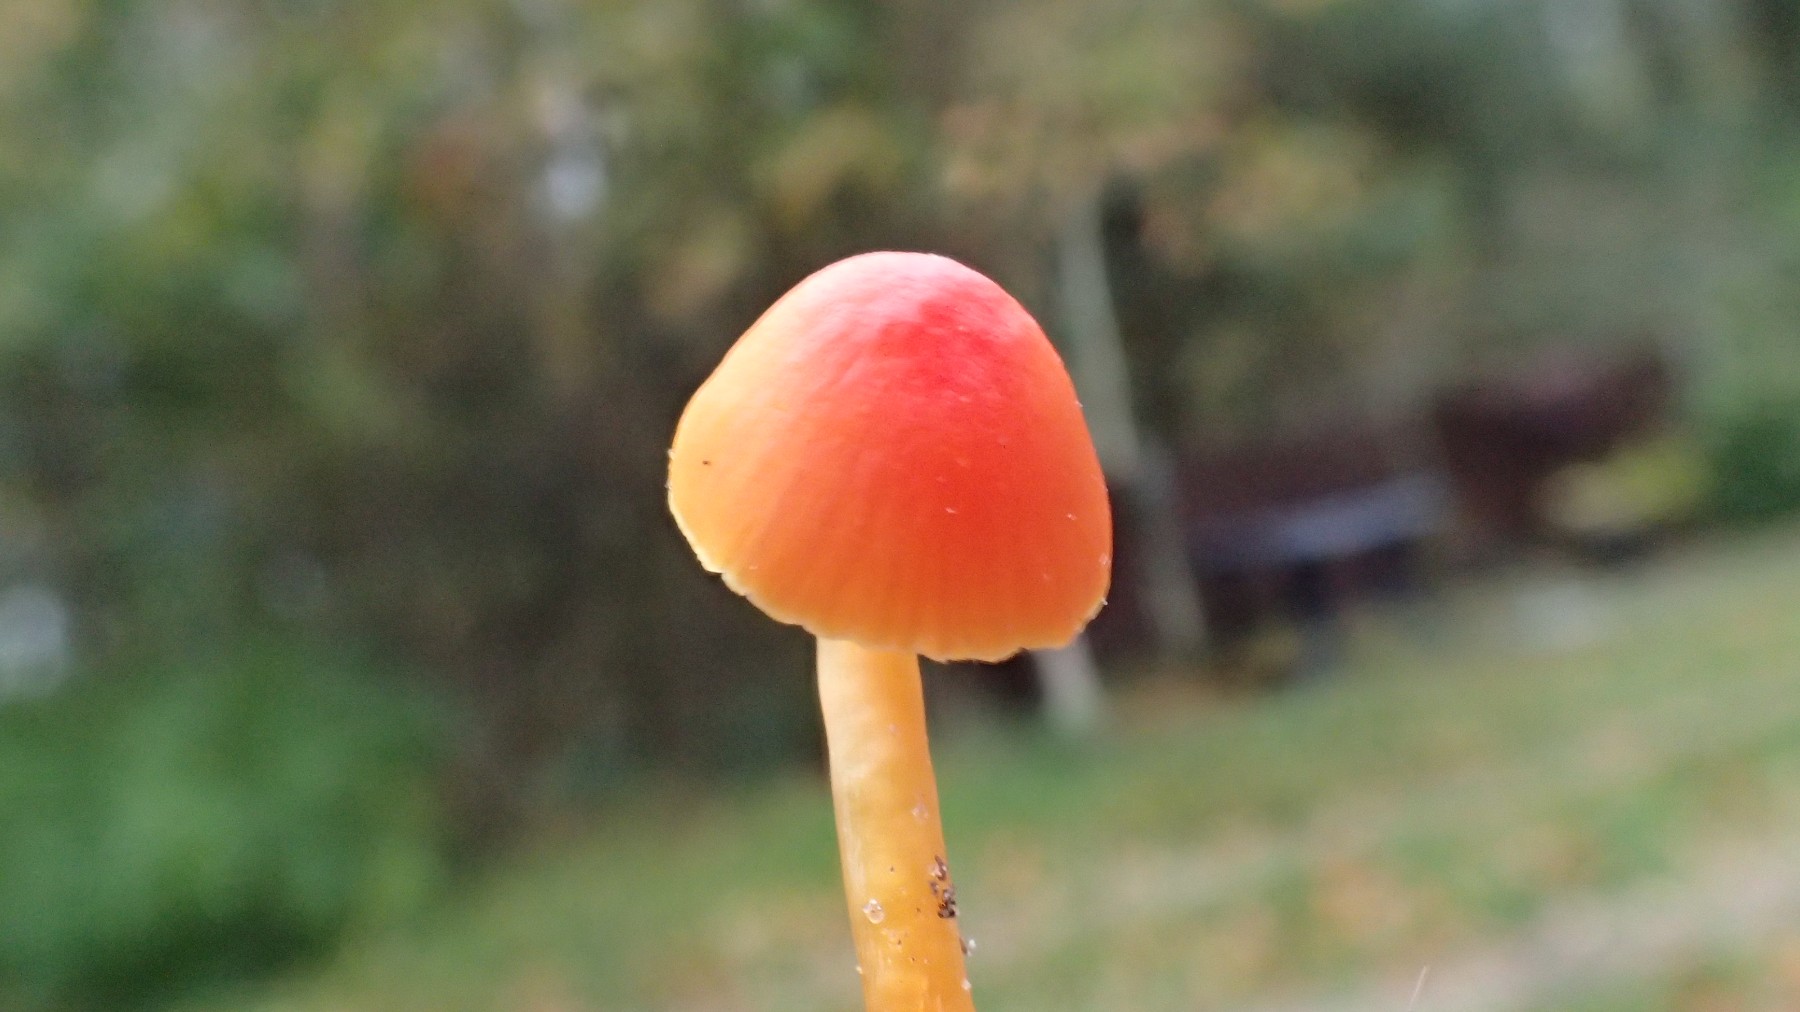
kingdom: Fungi
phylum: Basidiomycota
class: Agaricomycetes
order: Agaricales
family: Hygrophoraceae
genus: Hygrocybe
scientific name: Hygrocybe mucronella
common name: bitter vokshat
